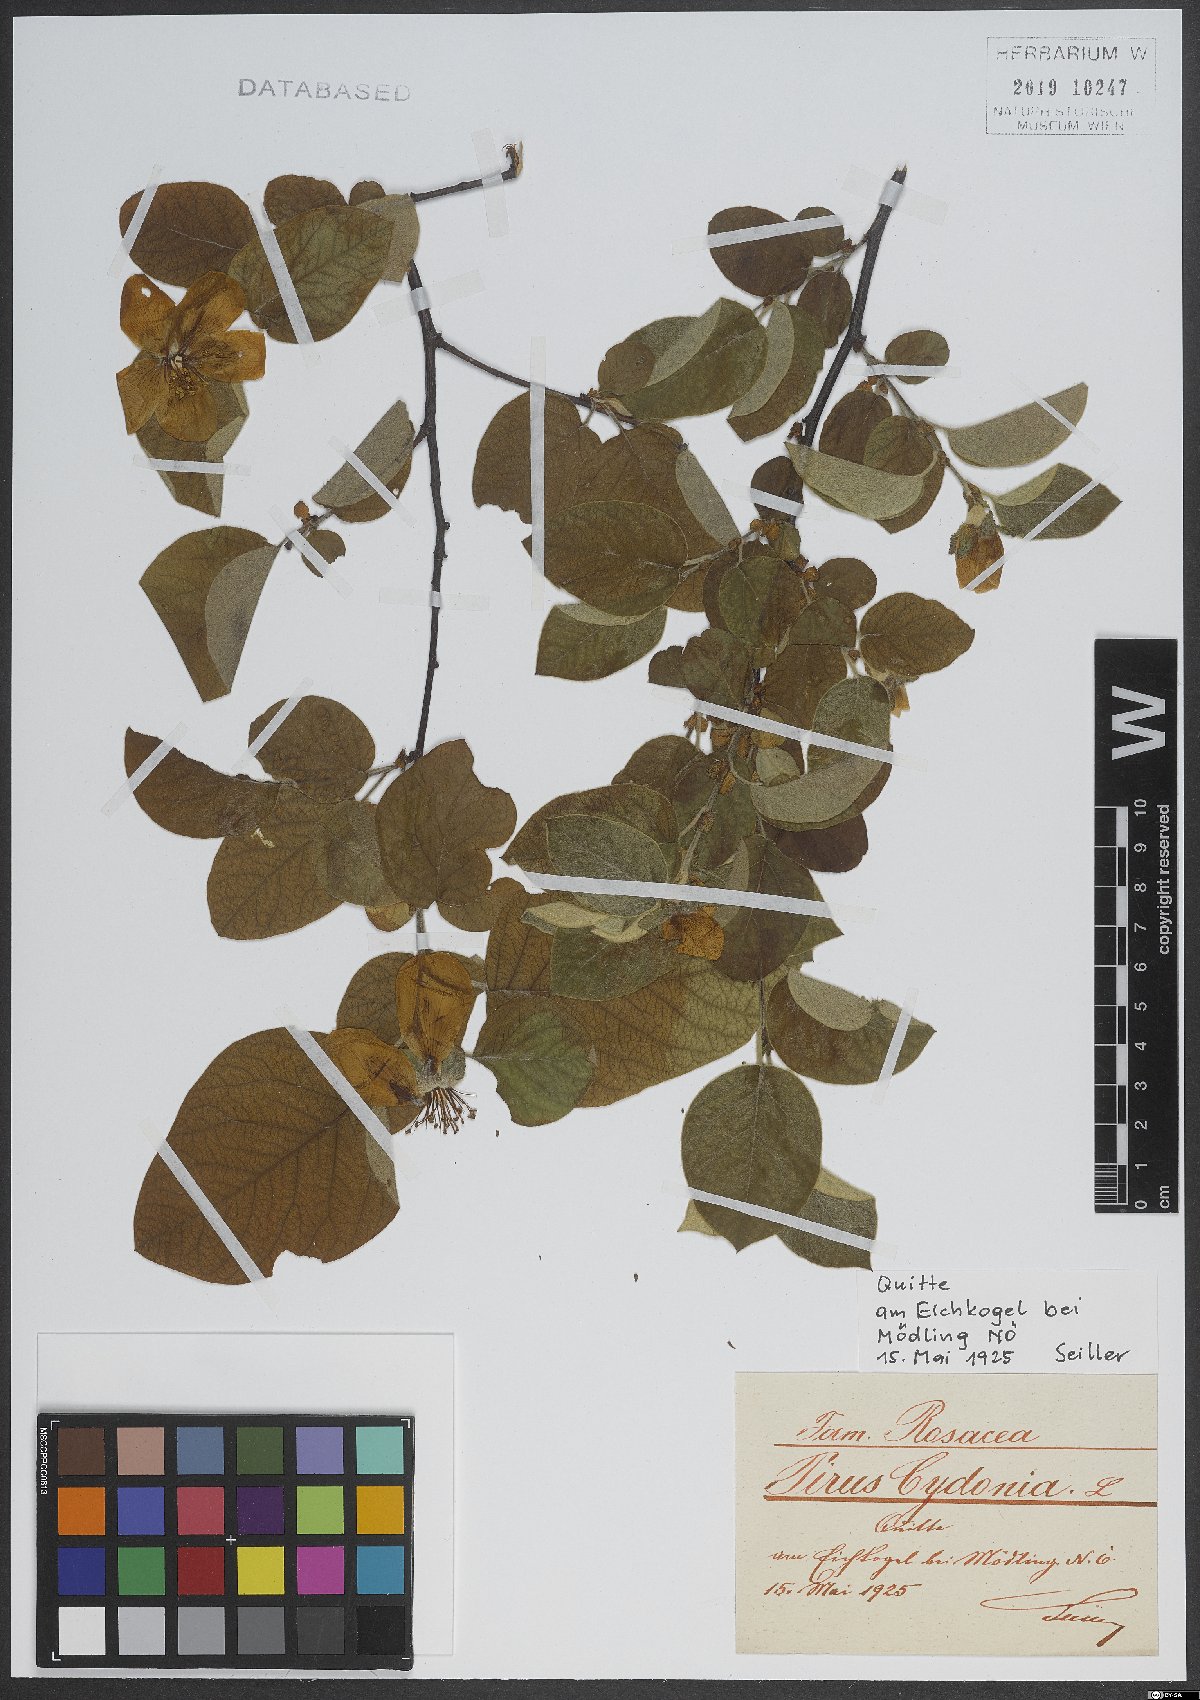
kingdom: Plantae
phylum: Tracheophyta
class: Magnoliopsida
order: Rosales
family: Rosaceae
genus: Cydonia
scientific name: Cydonia oblonga
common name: Quince
